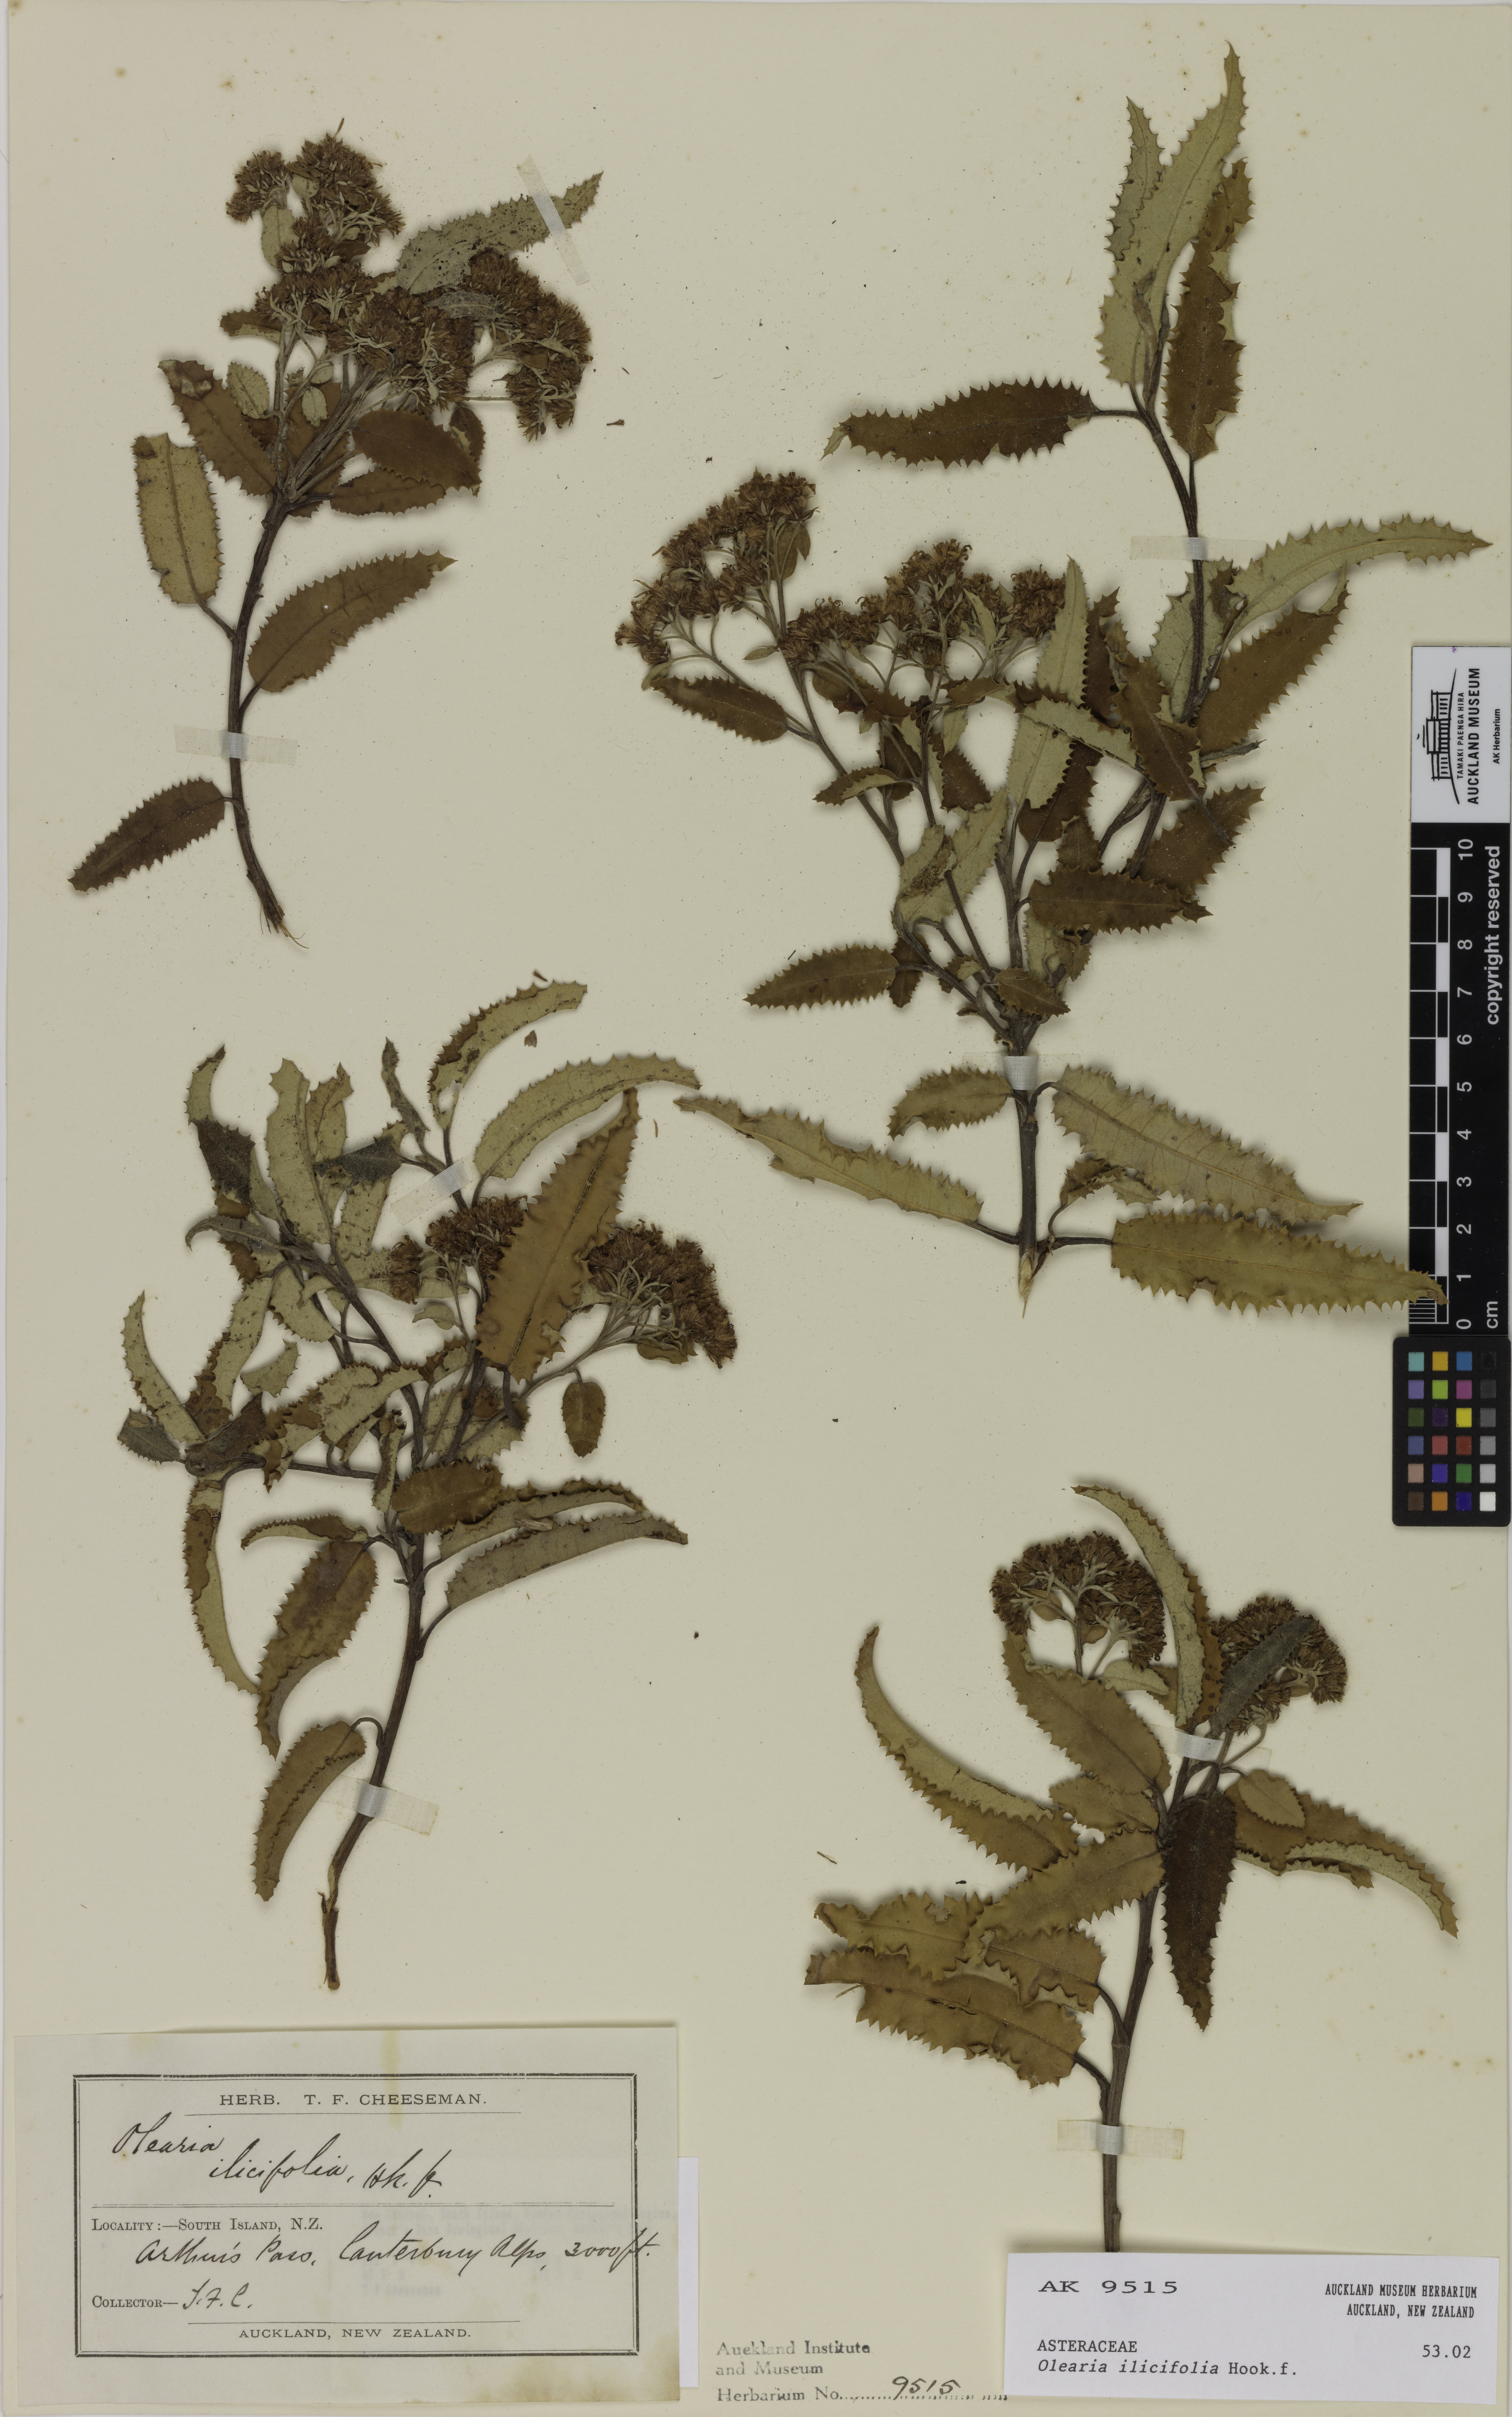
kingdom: Plantae
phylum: Tracheophyta
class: Magnoliopsida
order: Asterales
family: Asteraceae
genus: Olearia
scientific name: Olearia ilicifolia
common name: Maori-holly
